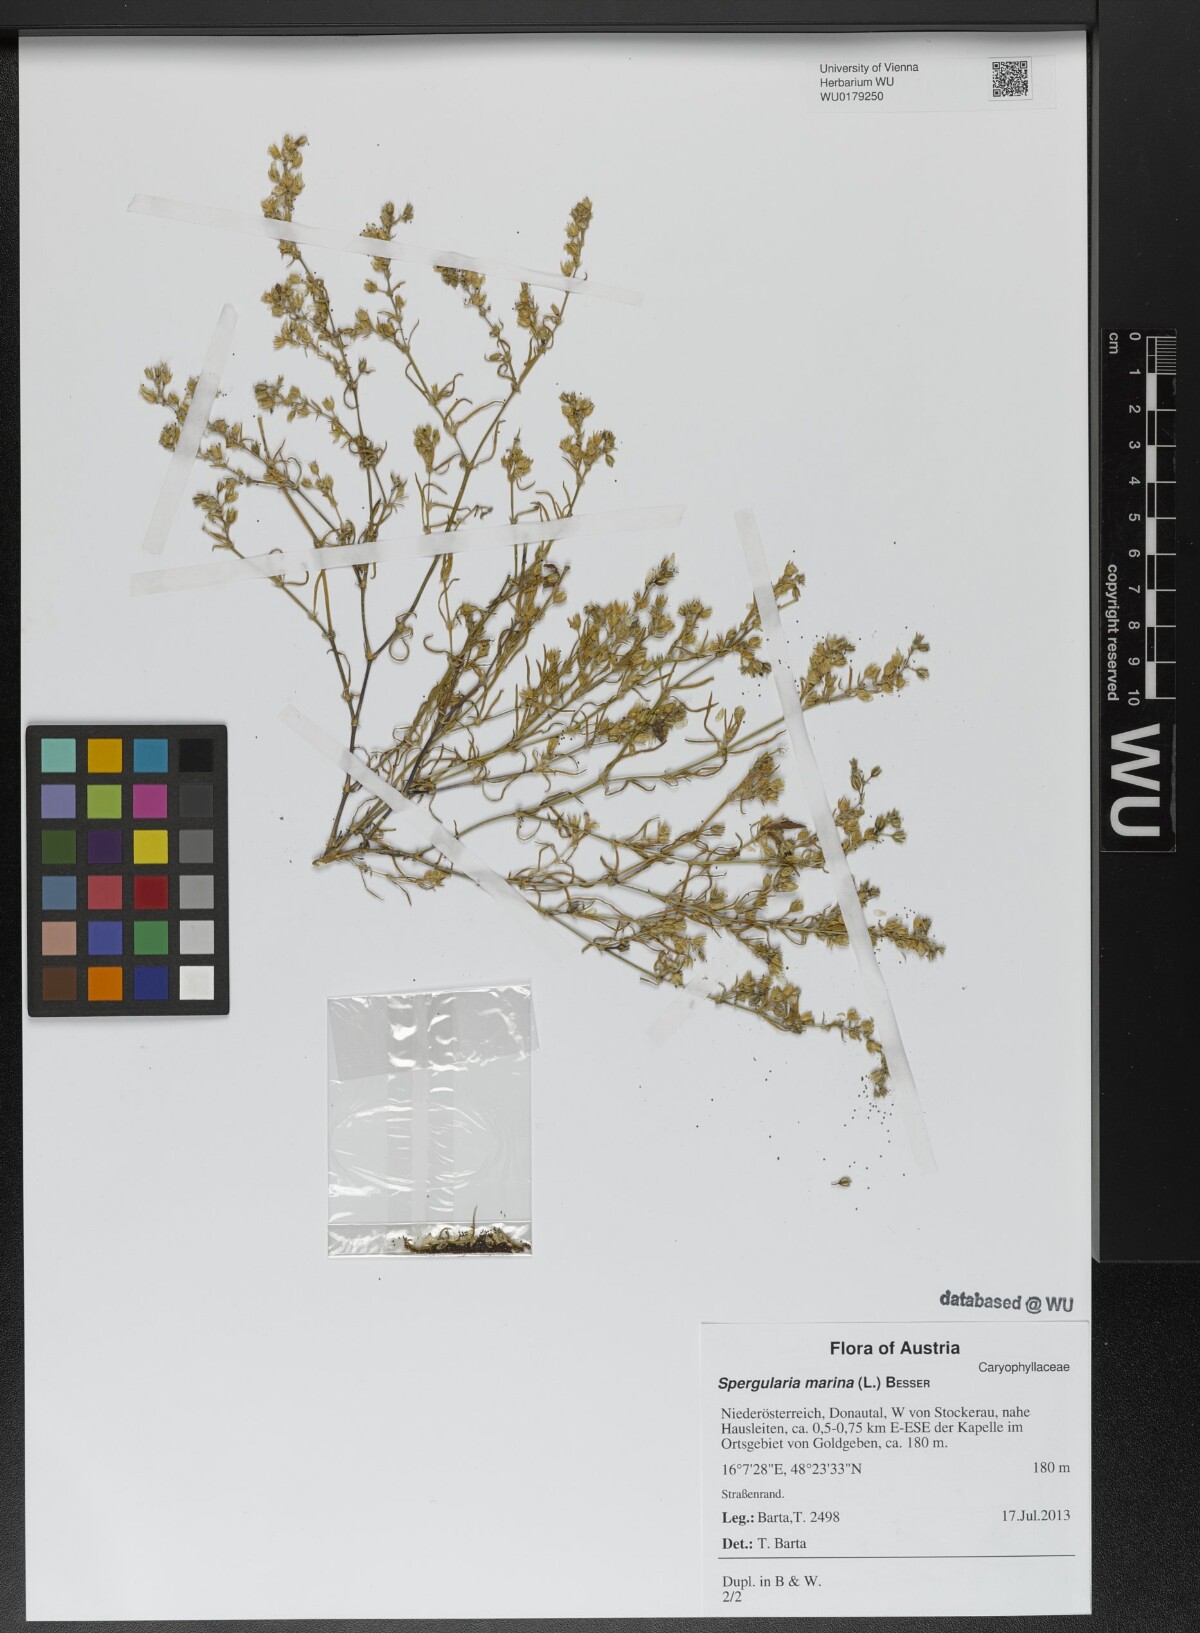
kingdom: Plantae
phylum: Tracheophyta
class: Magnoliopsida
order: Caryophyllales
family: Caryophyllaceae
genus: Spergularia
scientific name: Spergularia marina
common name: Lesser sea-spurrey
